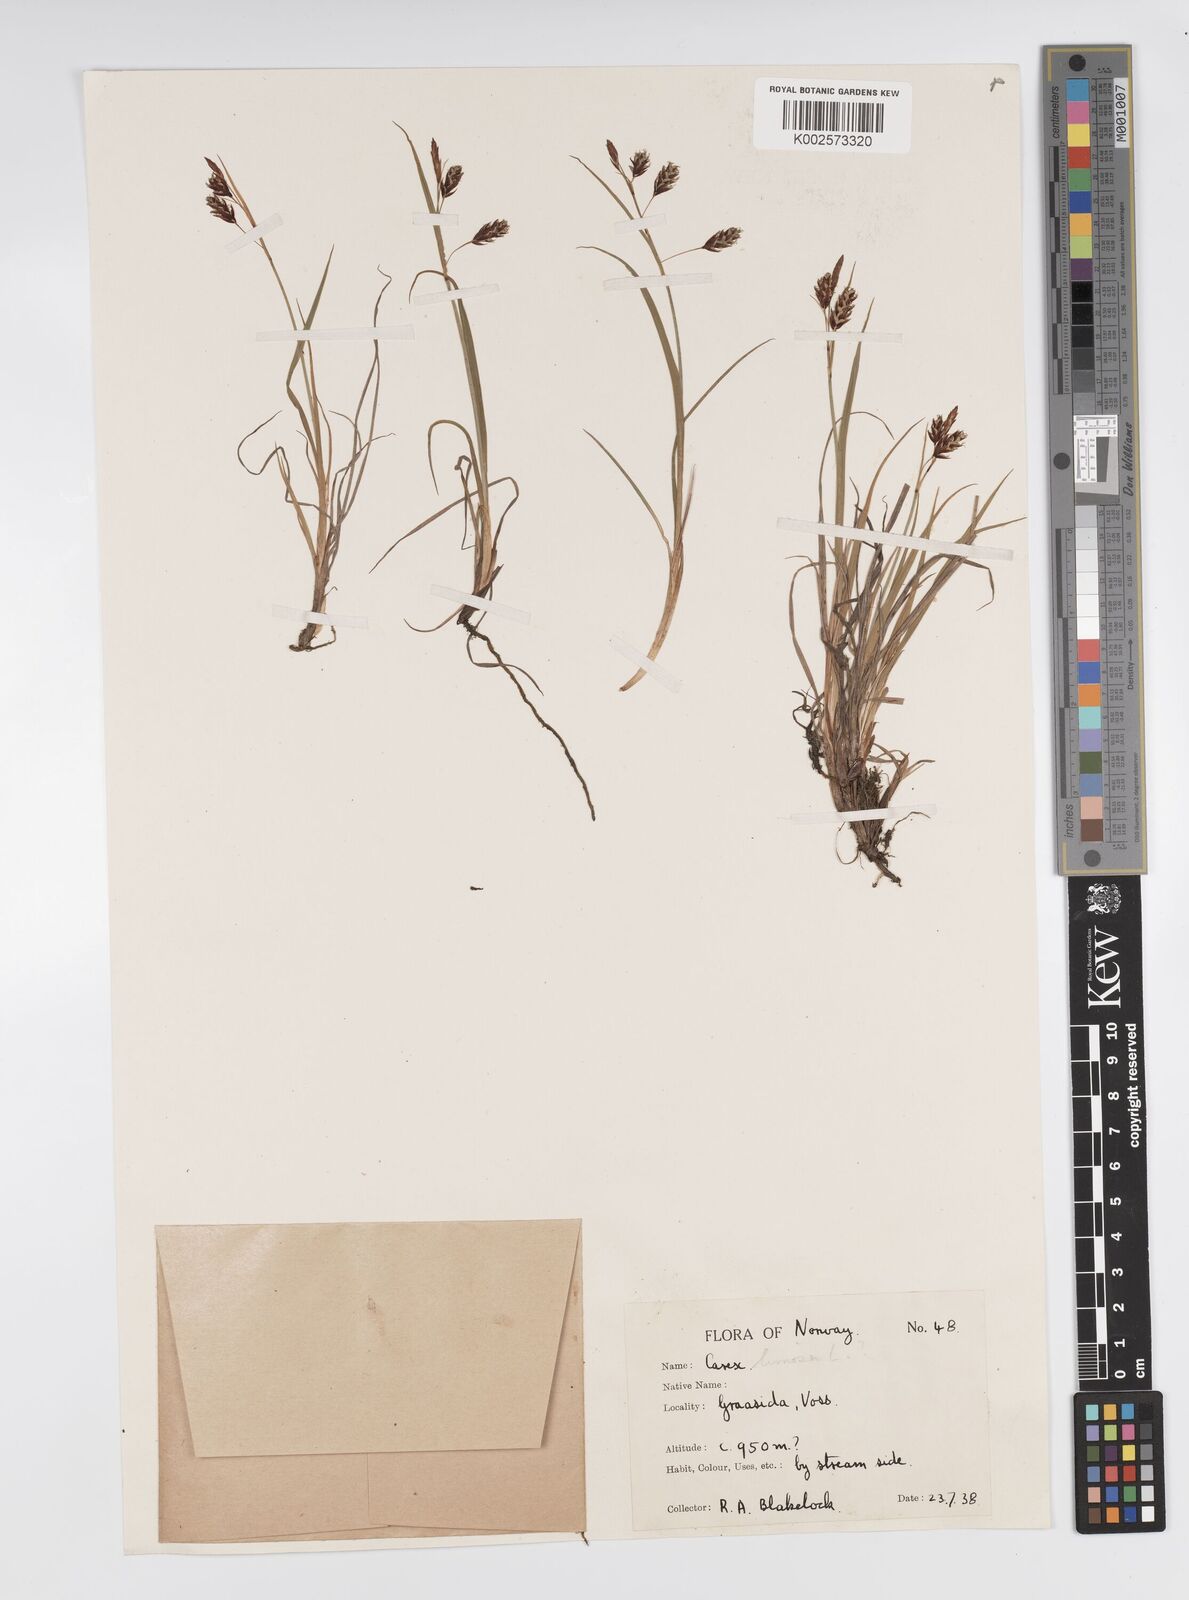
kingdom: Plantae
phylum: Tracheophyta
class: Liliopsida
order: Poales
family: Cyperaceae
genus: Carex
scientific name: Carex magellanica
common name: Bog sedge
